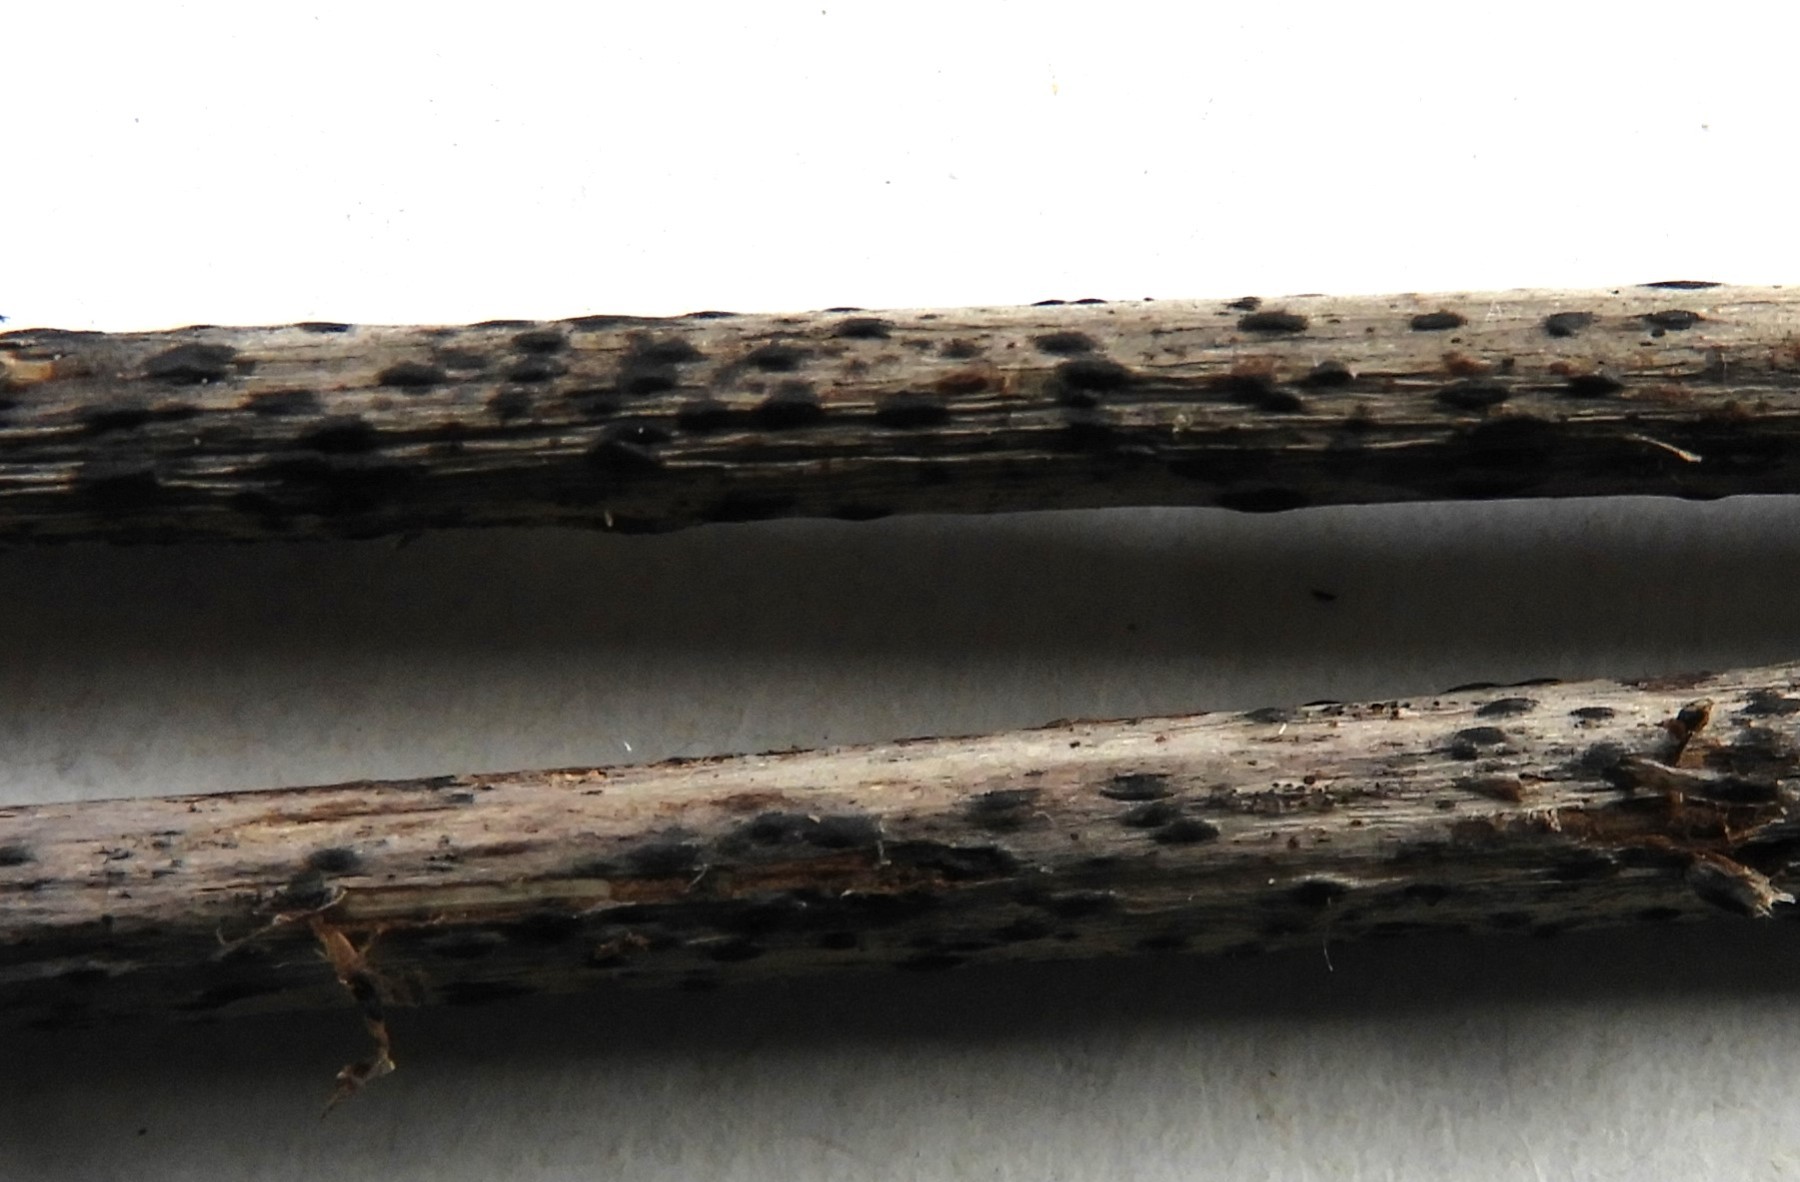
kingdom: Fungi
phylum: Ascomycota
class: Leotiomycetes
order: Helotiales
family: Ploettnerulaceae
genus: Pyrenopeziza
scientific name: Pyrenopeziza petiolaris
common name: ahorn-kerneskive
